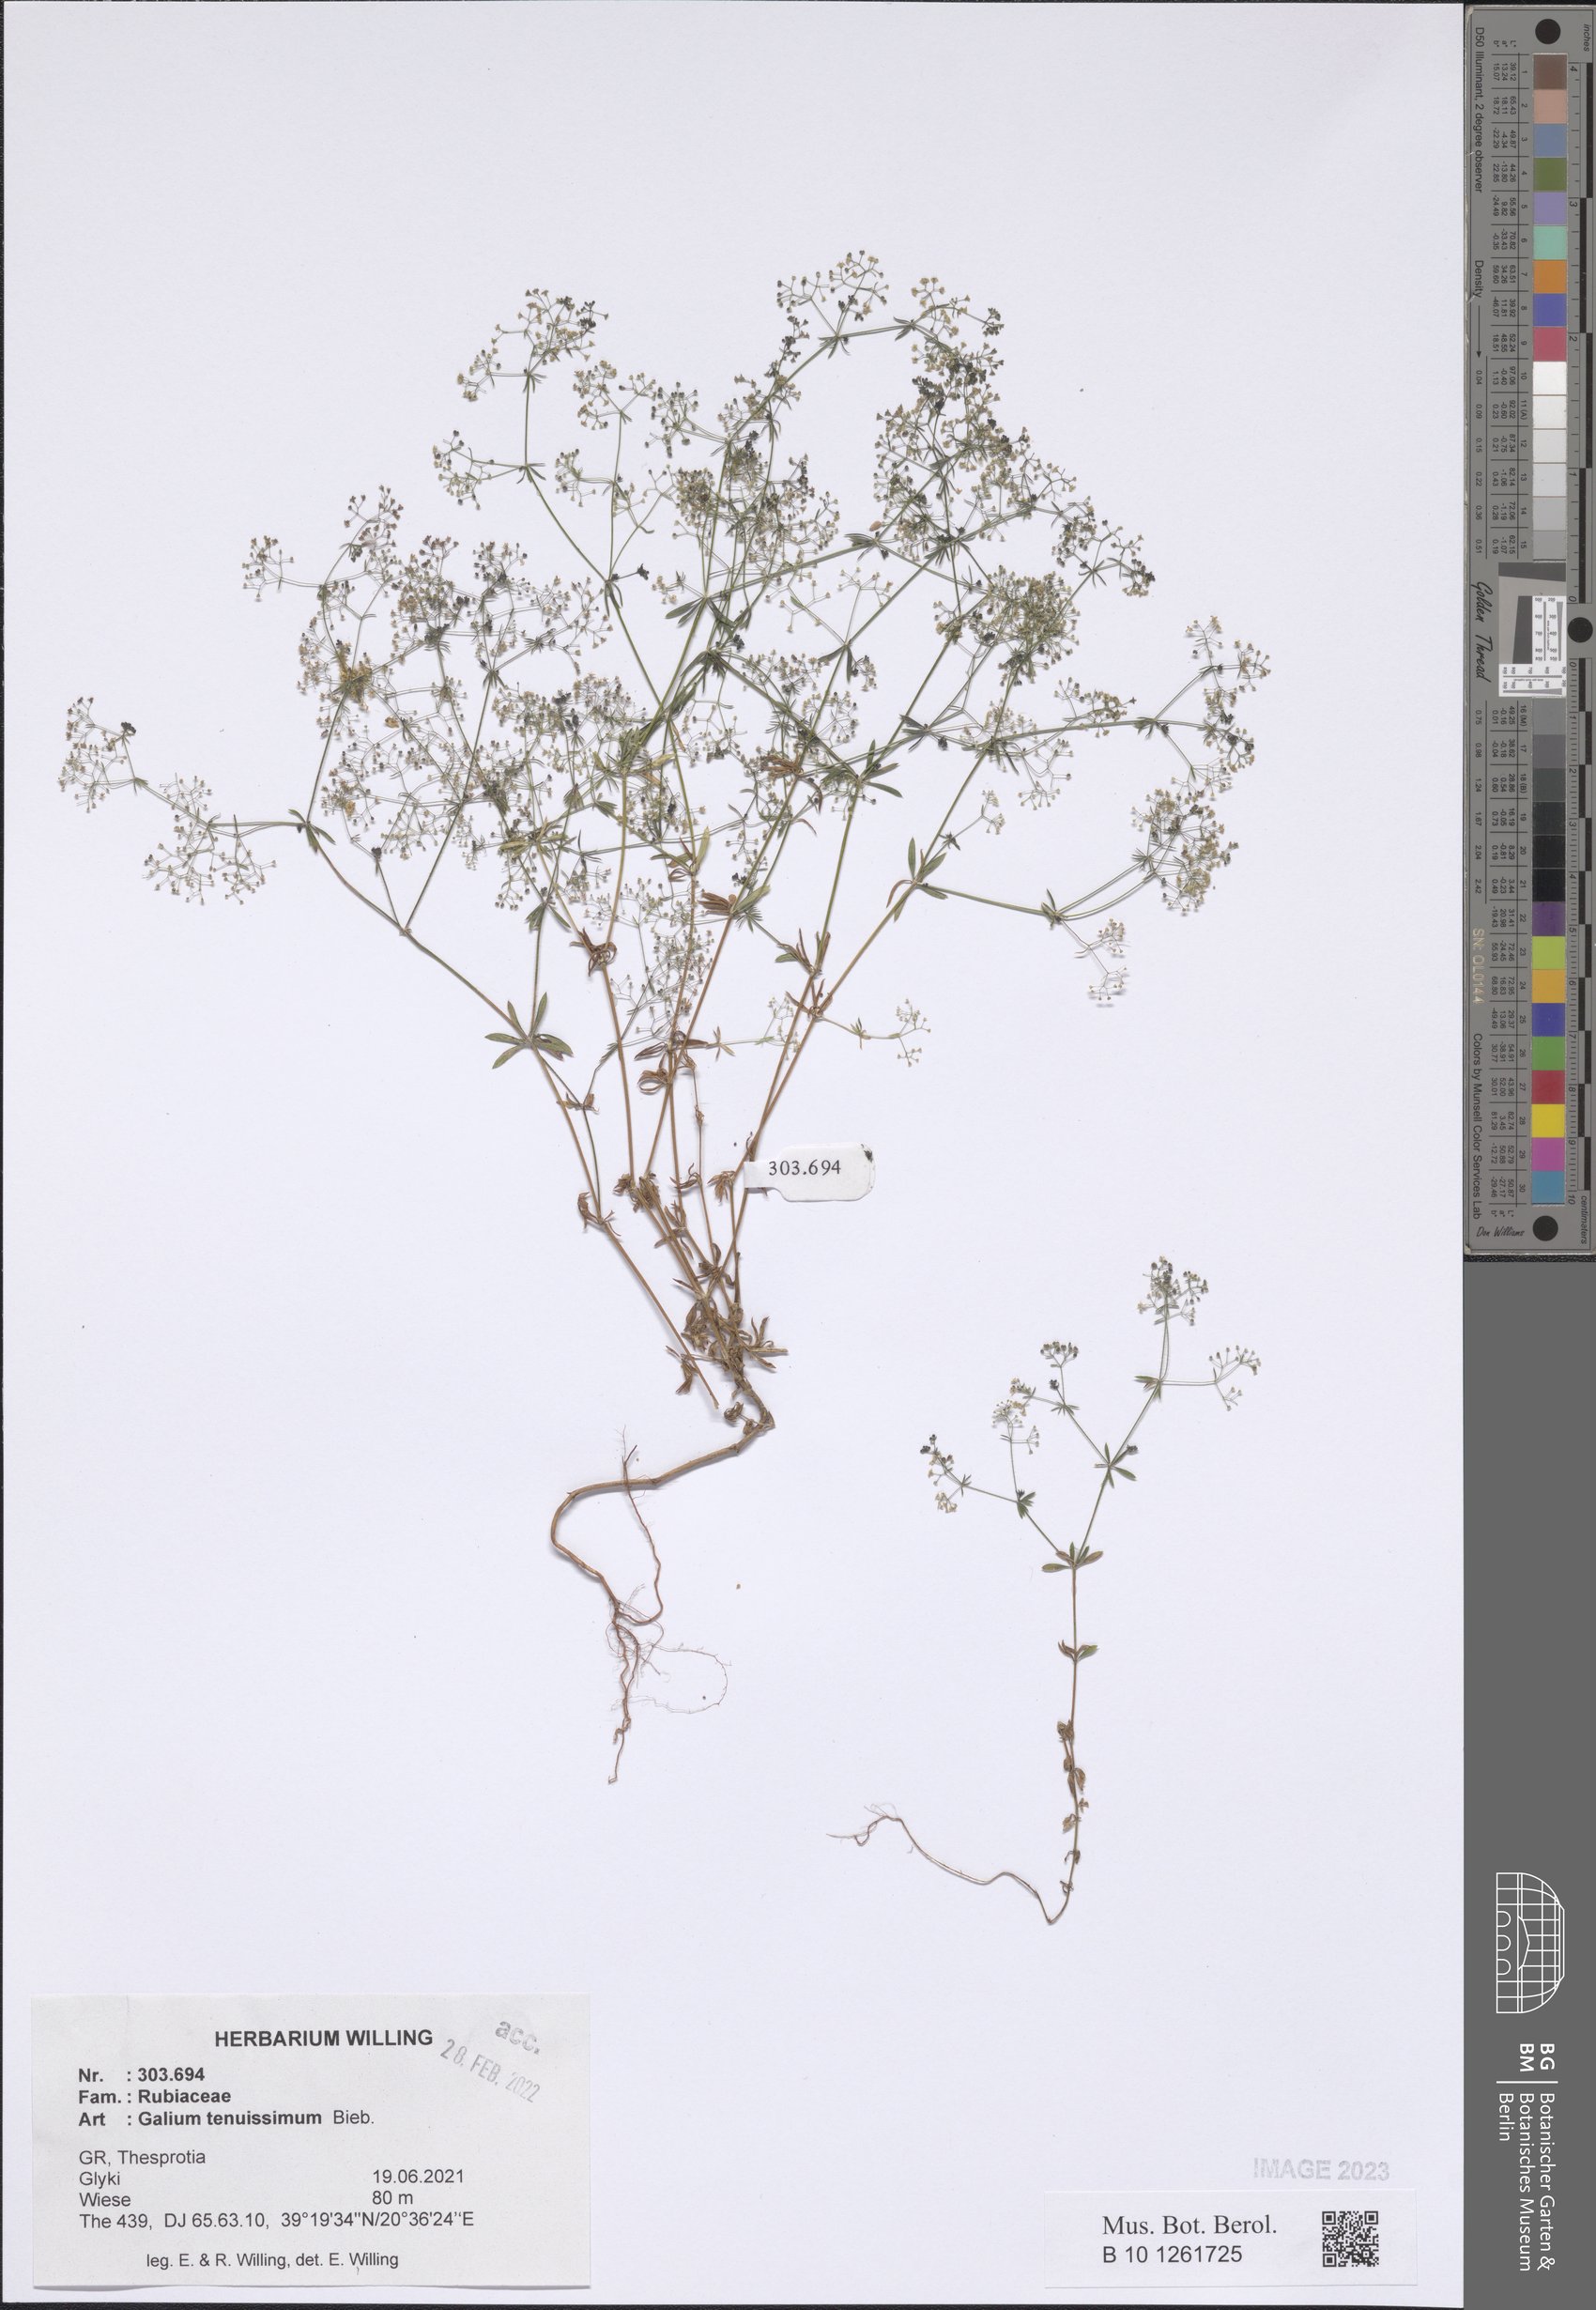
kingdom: Plantae
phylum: Tracheophyta
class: Magnoliopsida
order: Gentianales
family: Rubiaceae
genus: Galium
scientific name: Galium tenuissimum
